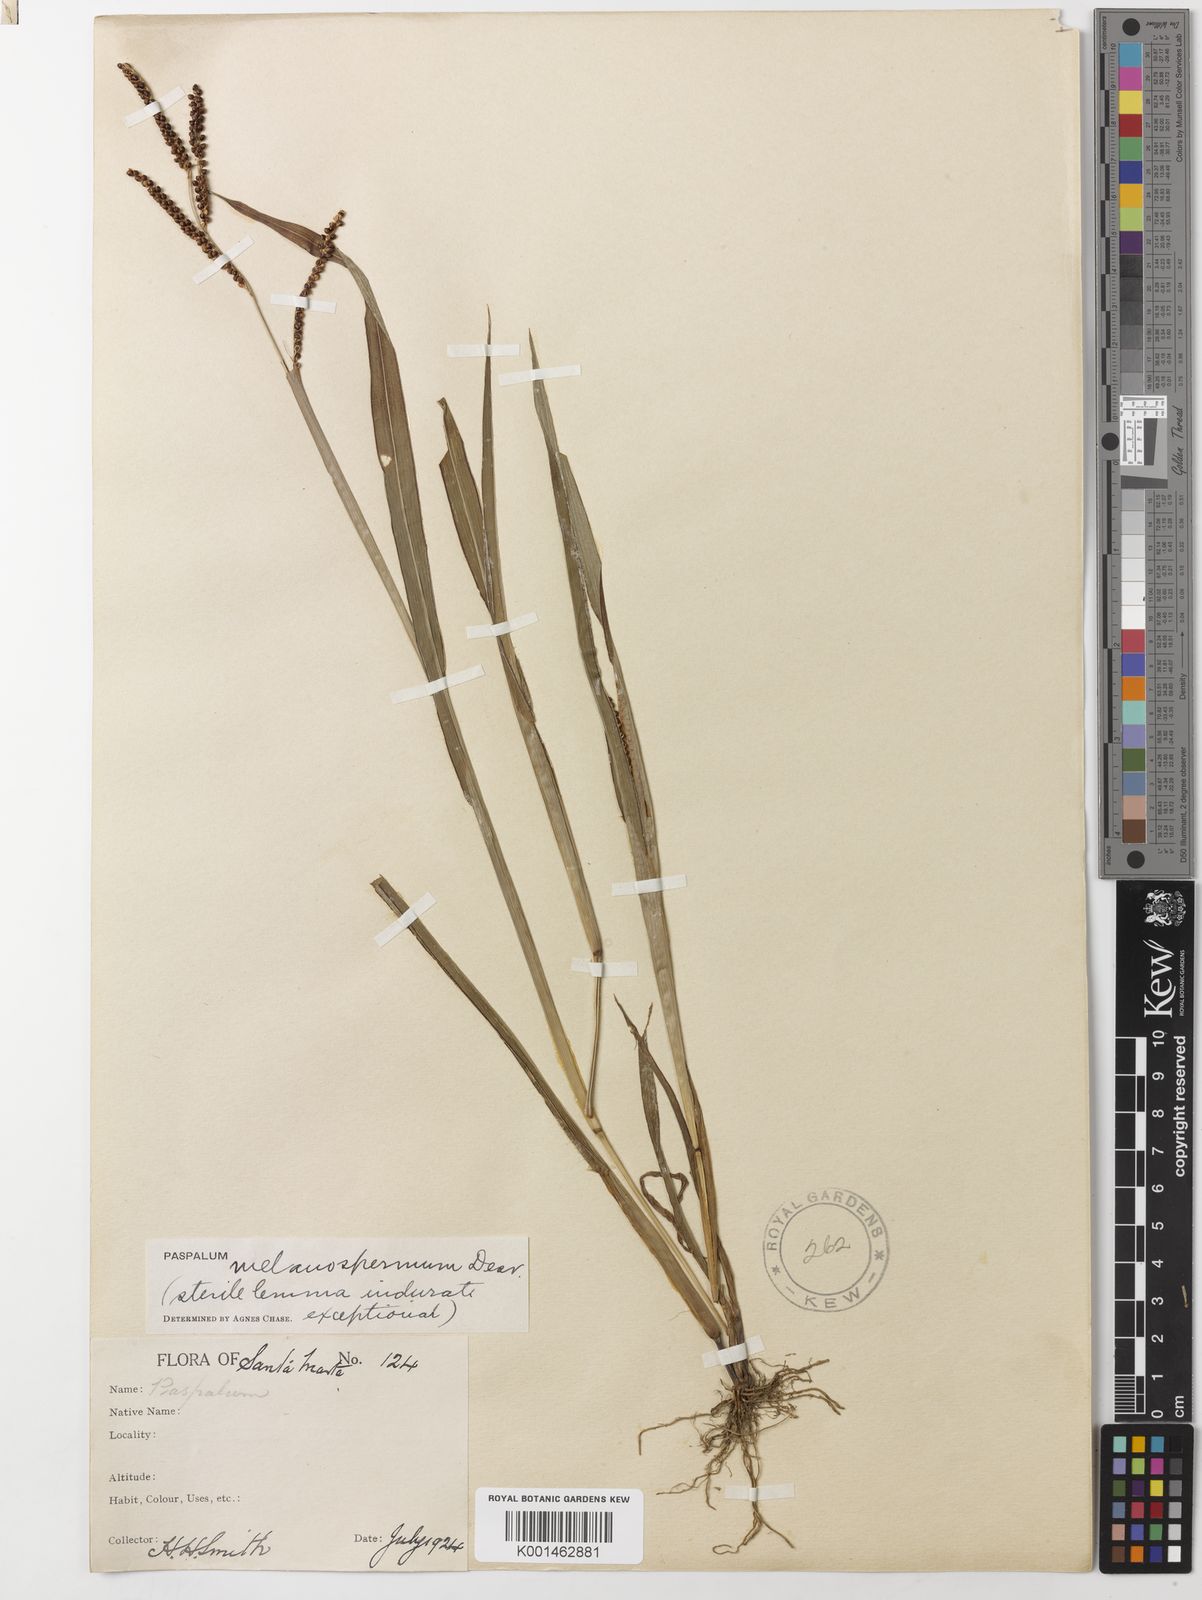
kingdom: Plantae
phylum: Tracheophyta
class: Liliopsida
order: Poales
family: Poaceae
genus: Paspalum
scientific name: Paspalum melanospermum
